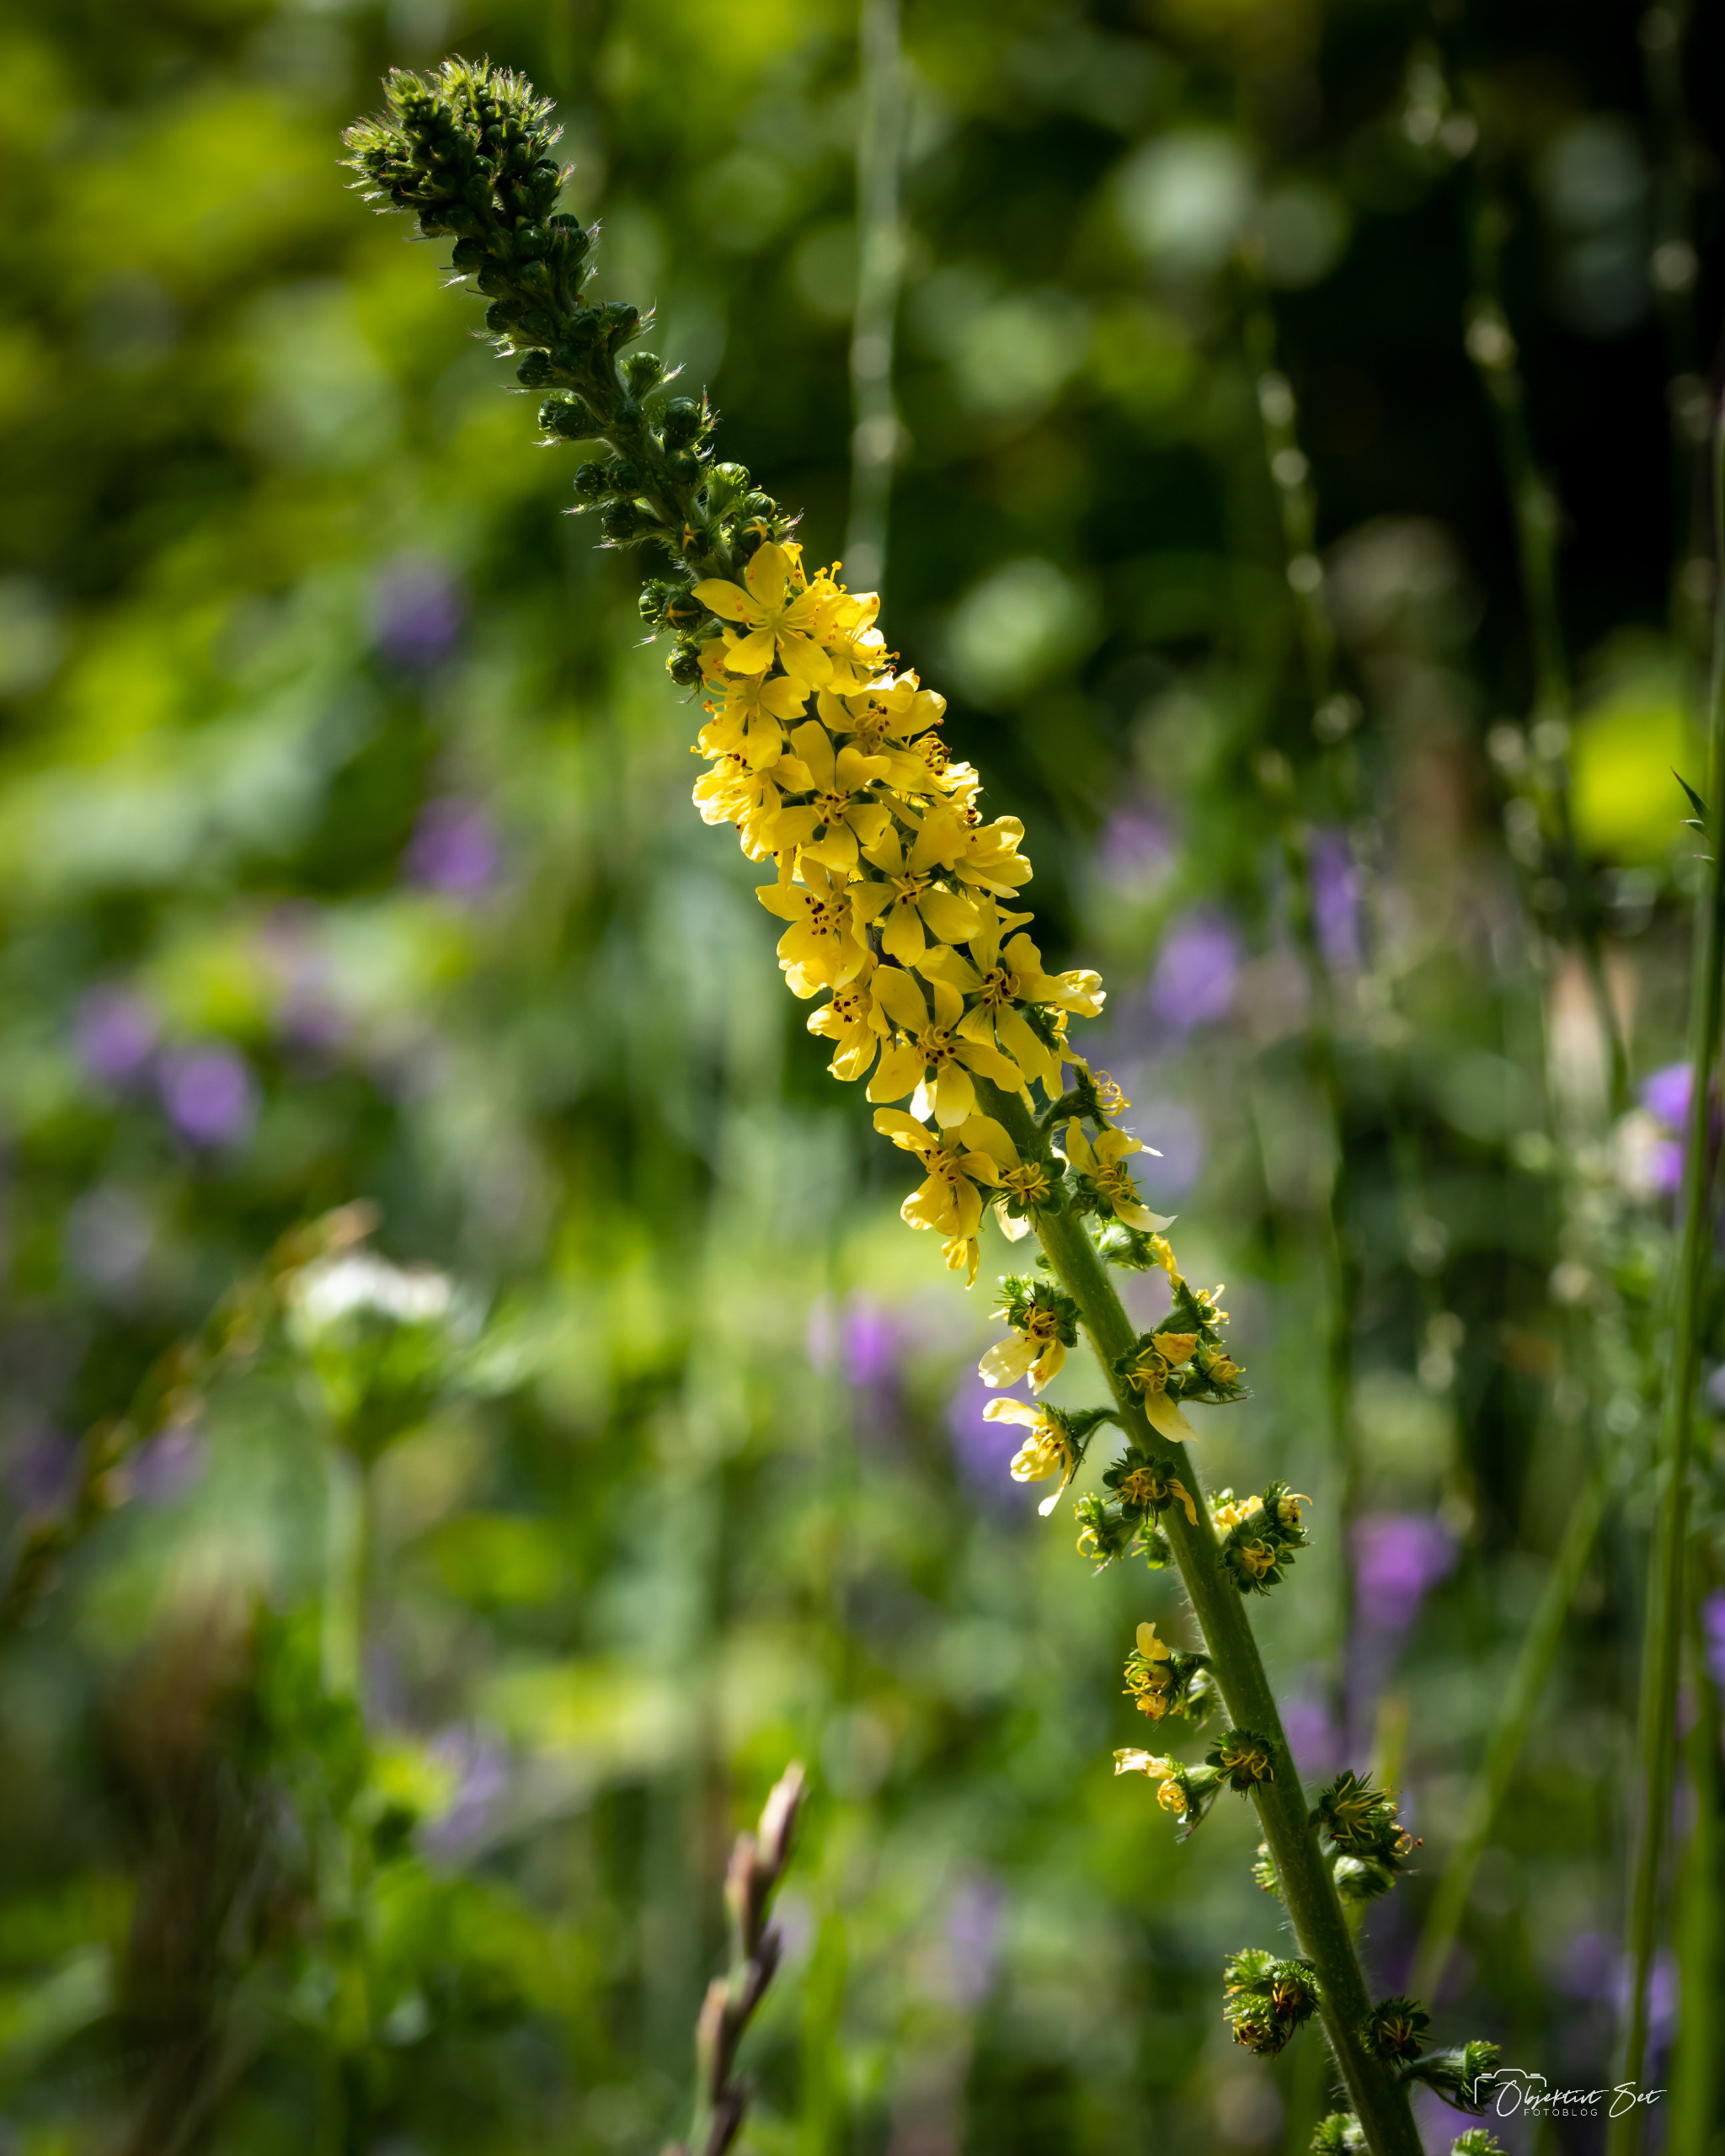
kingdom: Plantae
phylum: Tracheophyta
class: Magnoliopsida
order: Rosales
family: Rosaceae
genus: Agrimonia
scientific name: Agrimonia eupatoria
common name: Almindelig agermåne
